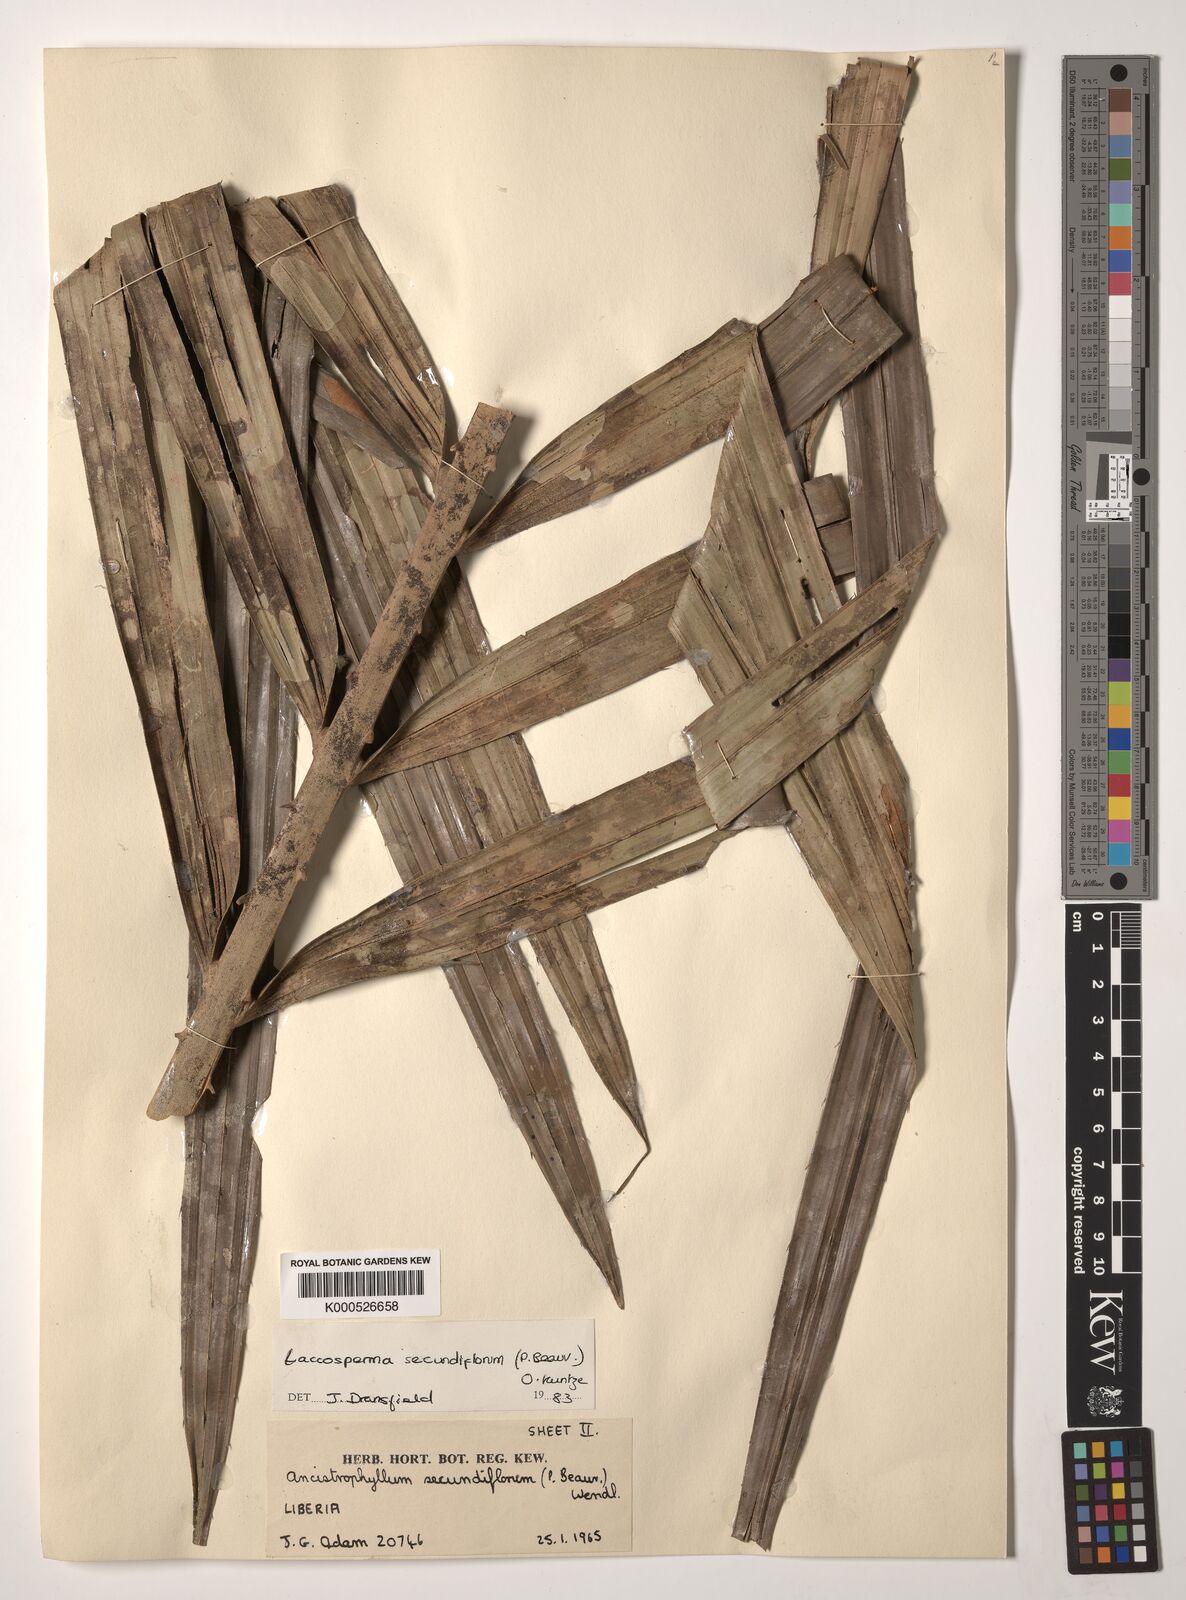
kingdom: Plantae
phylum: Tracheophyta
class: Liliopsida
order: Arecales
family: Arecaceae
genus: Laccosperma
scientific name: Laccosperma secundiflorum
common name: Rattan
